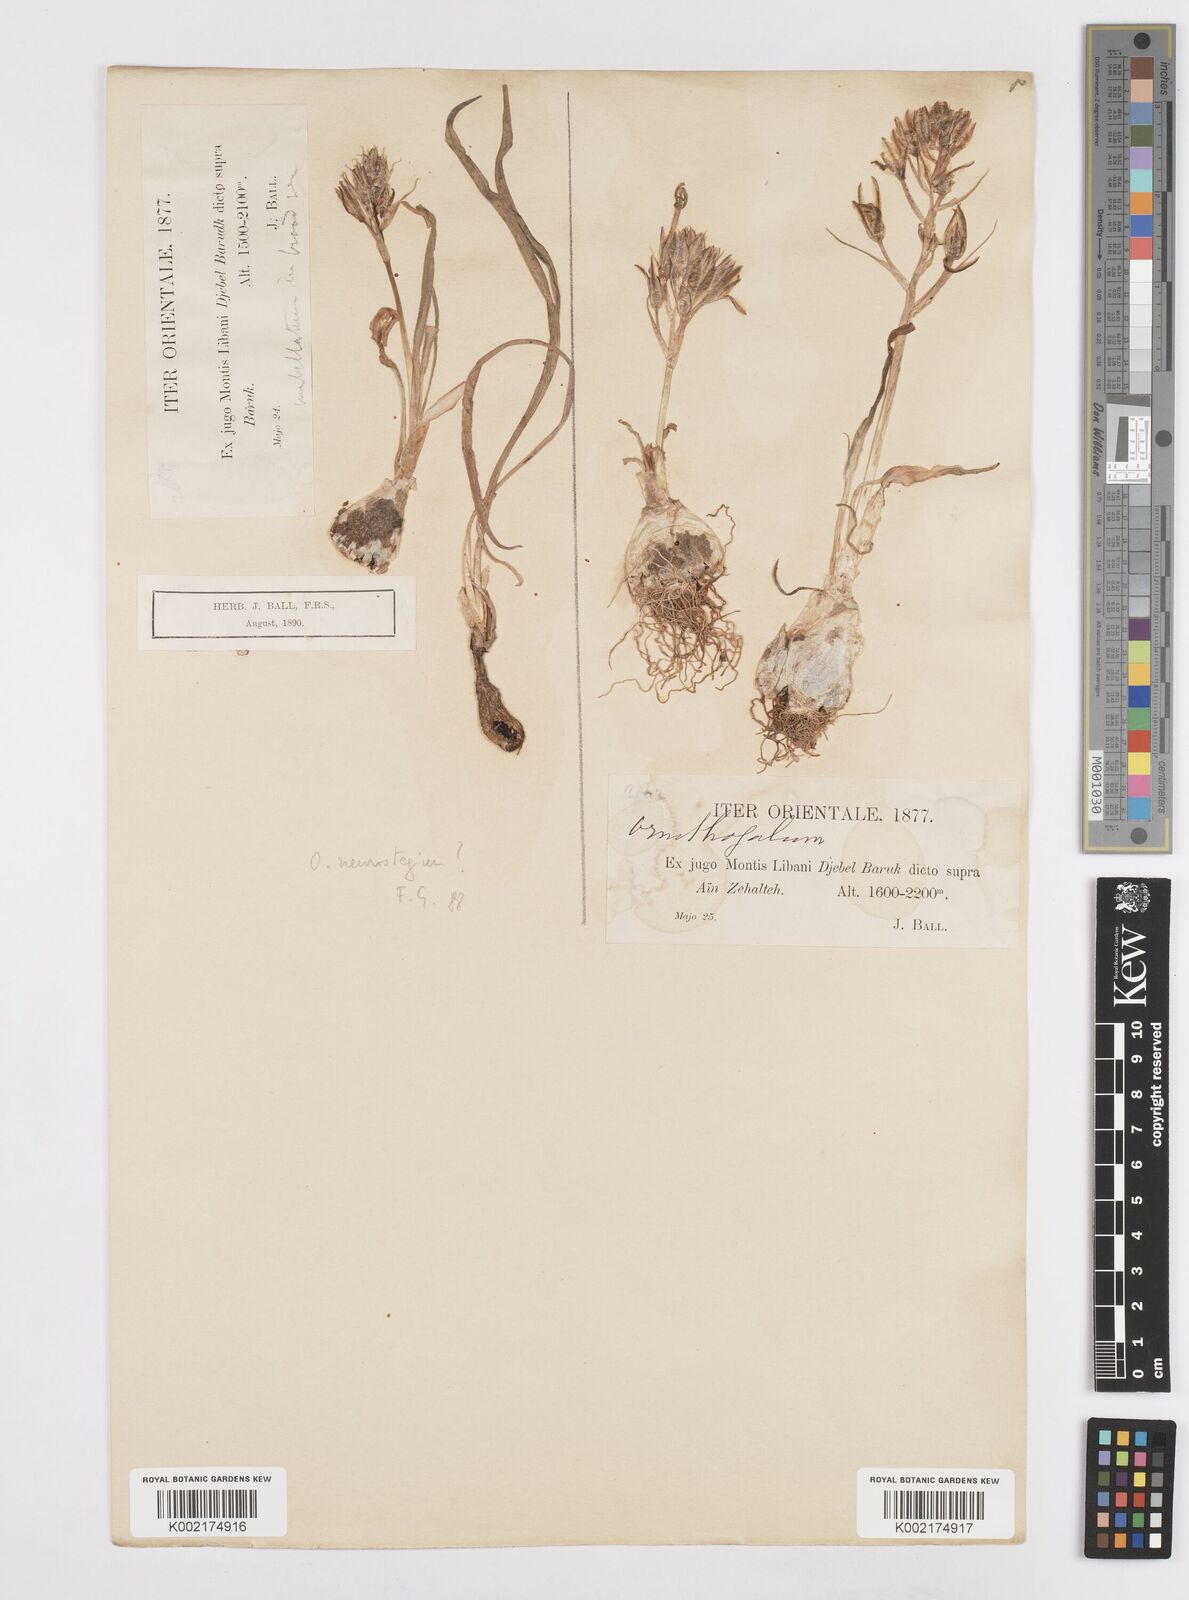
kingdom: Plantae
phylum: Tracheophyta
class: Liliopsida
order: Asparagales
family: Asparagaceae
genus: Ornithogalum
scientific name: Ornithogalum umbellatum
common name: Garden star-of-bethlehem
